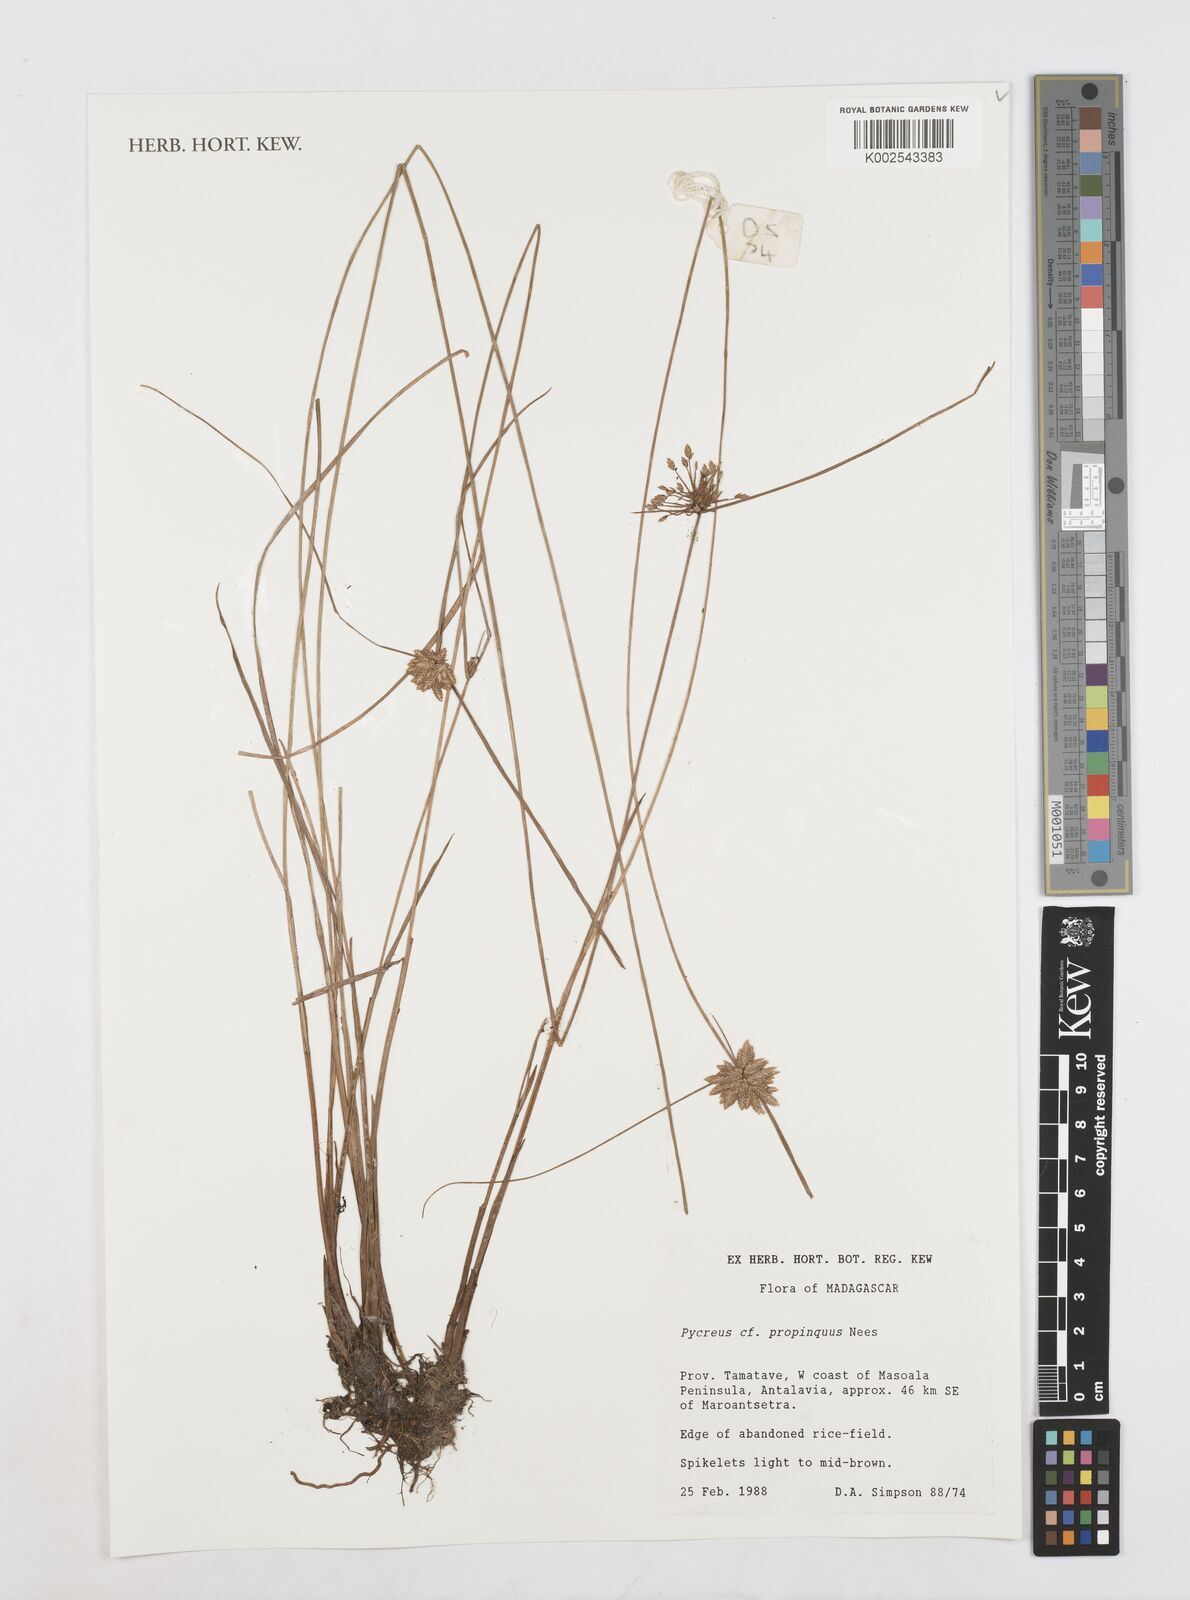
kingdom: Plantae
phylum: Tracheophyta
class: Liliopsida
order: Poales
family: Cyperaceae
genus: Cyperus
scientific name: Cyperus
